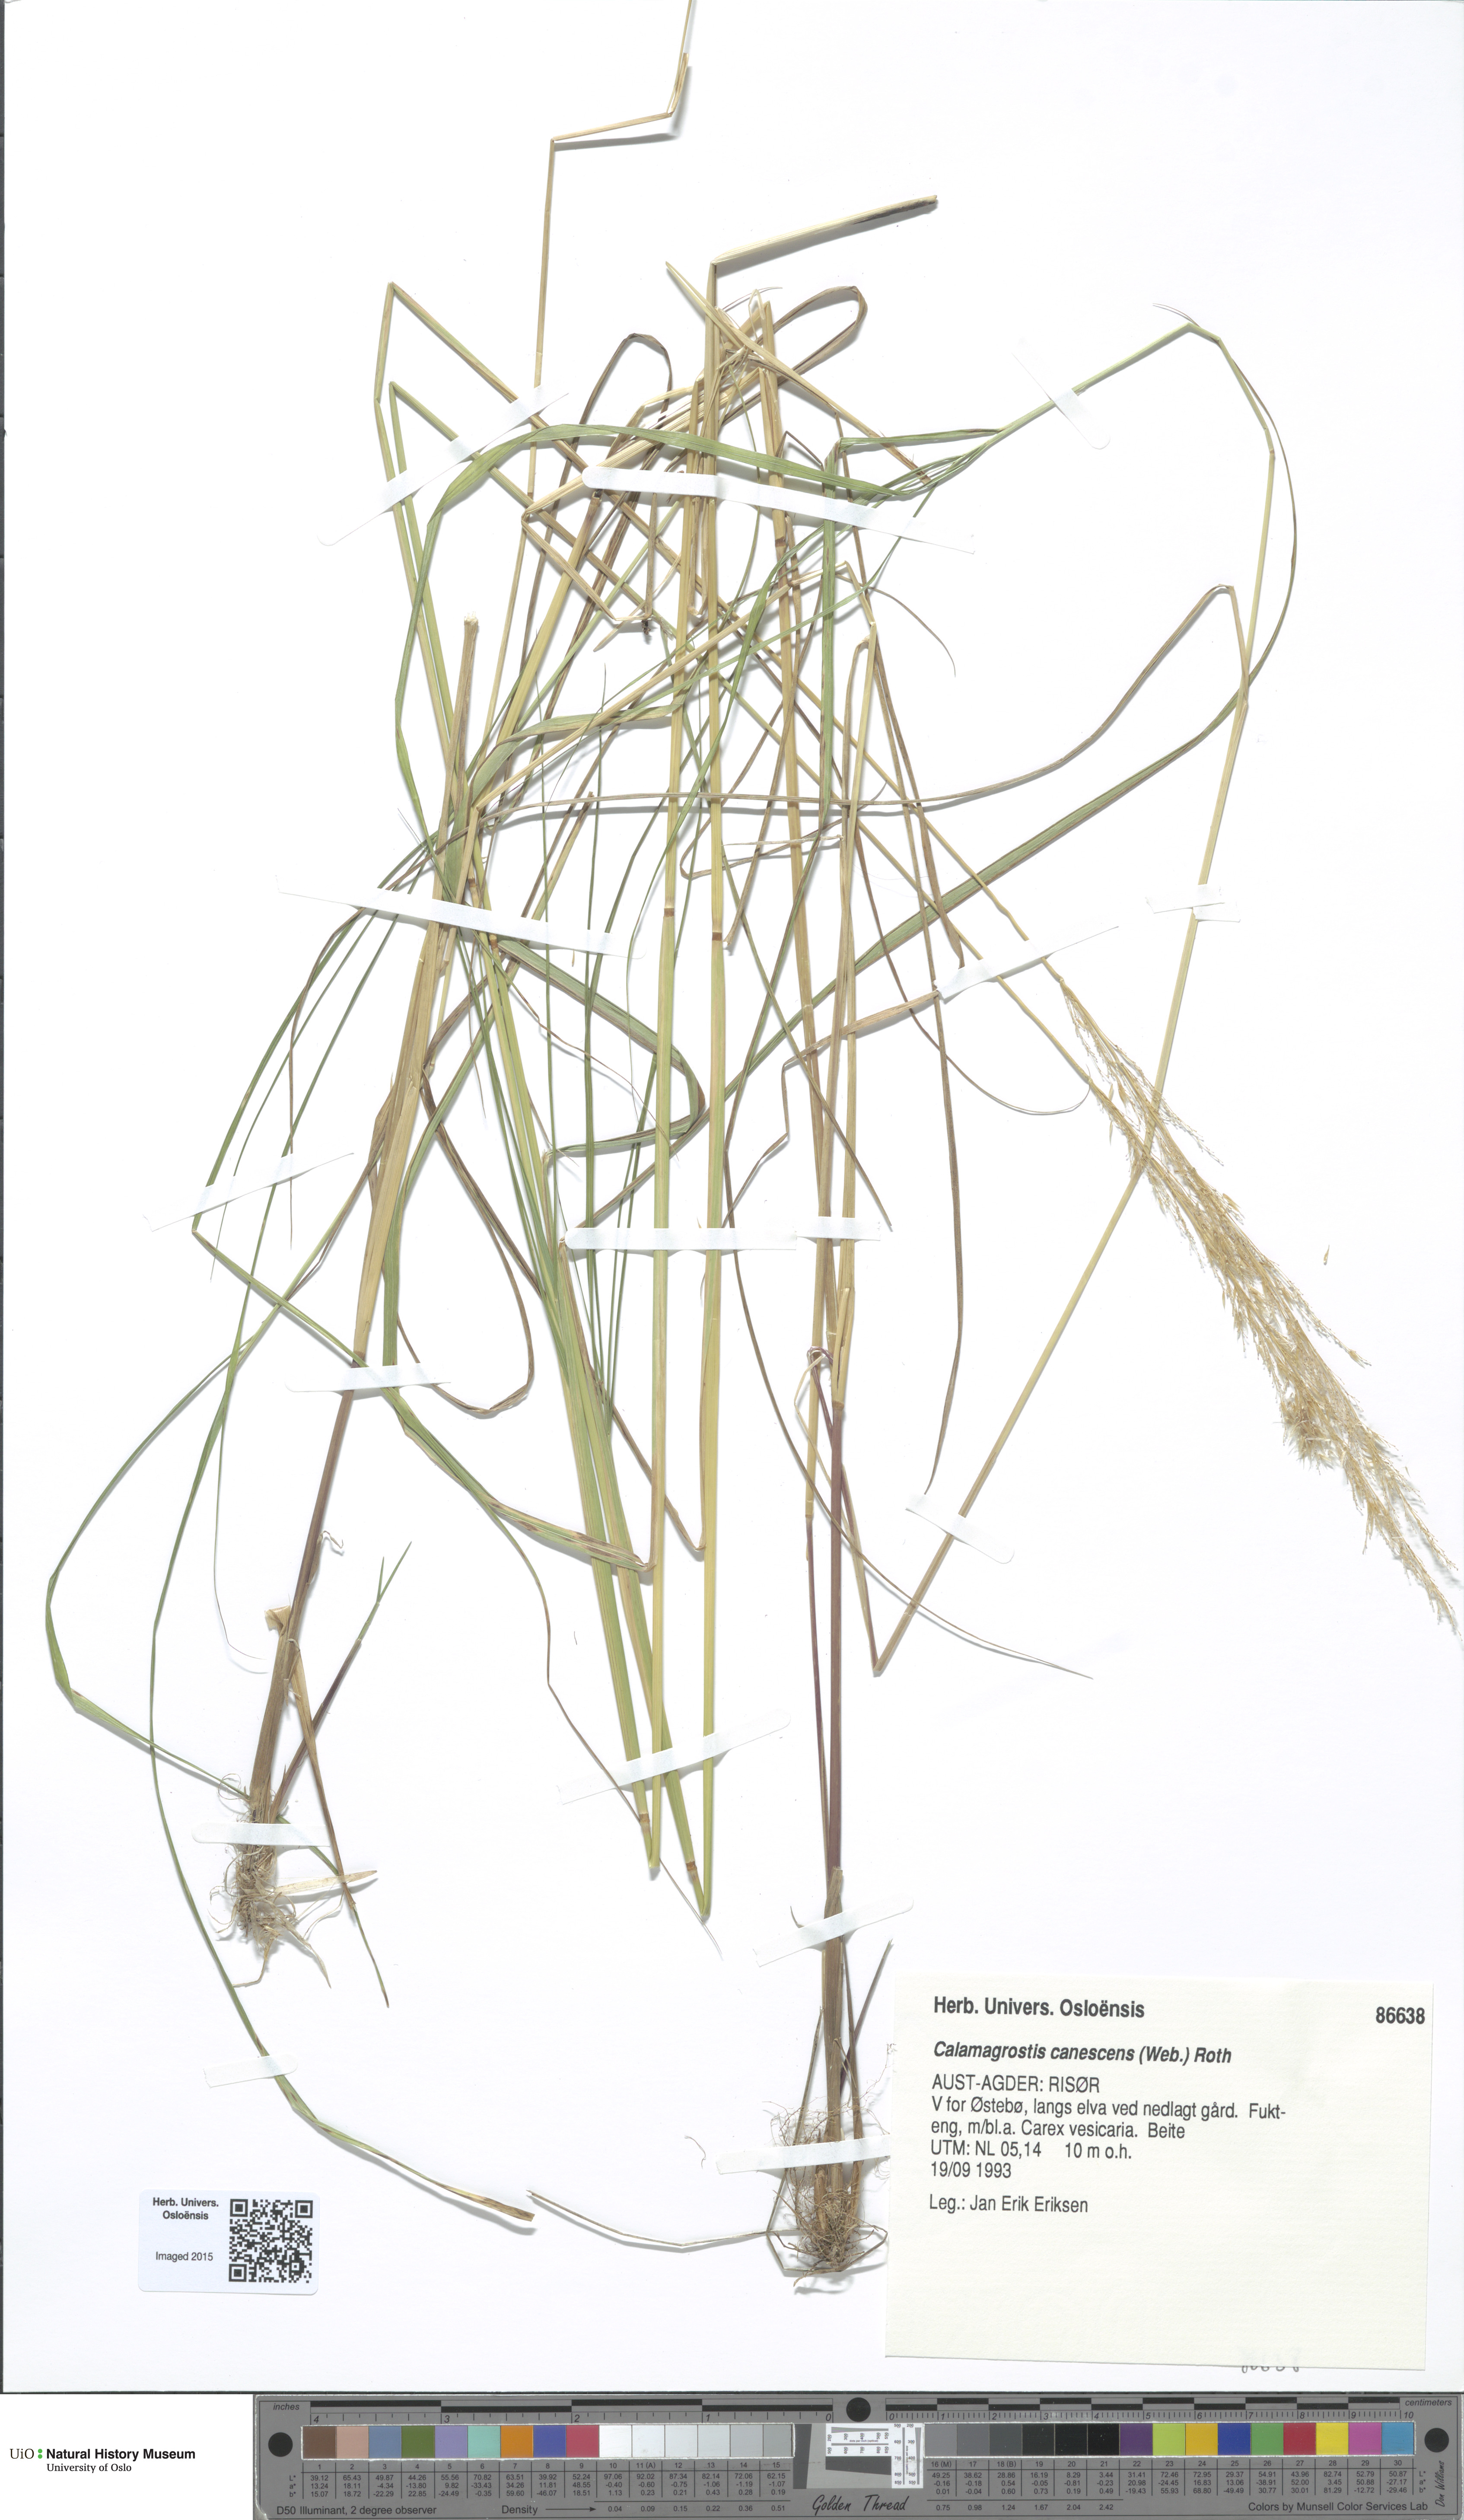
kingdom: Plantae
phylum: Tracheophyta
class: Liliopsida
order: Poales
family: Poaceae
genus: Calamagrostis
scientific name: Calamagrostis canescens
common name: Purple small-reed
